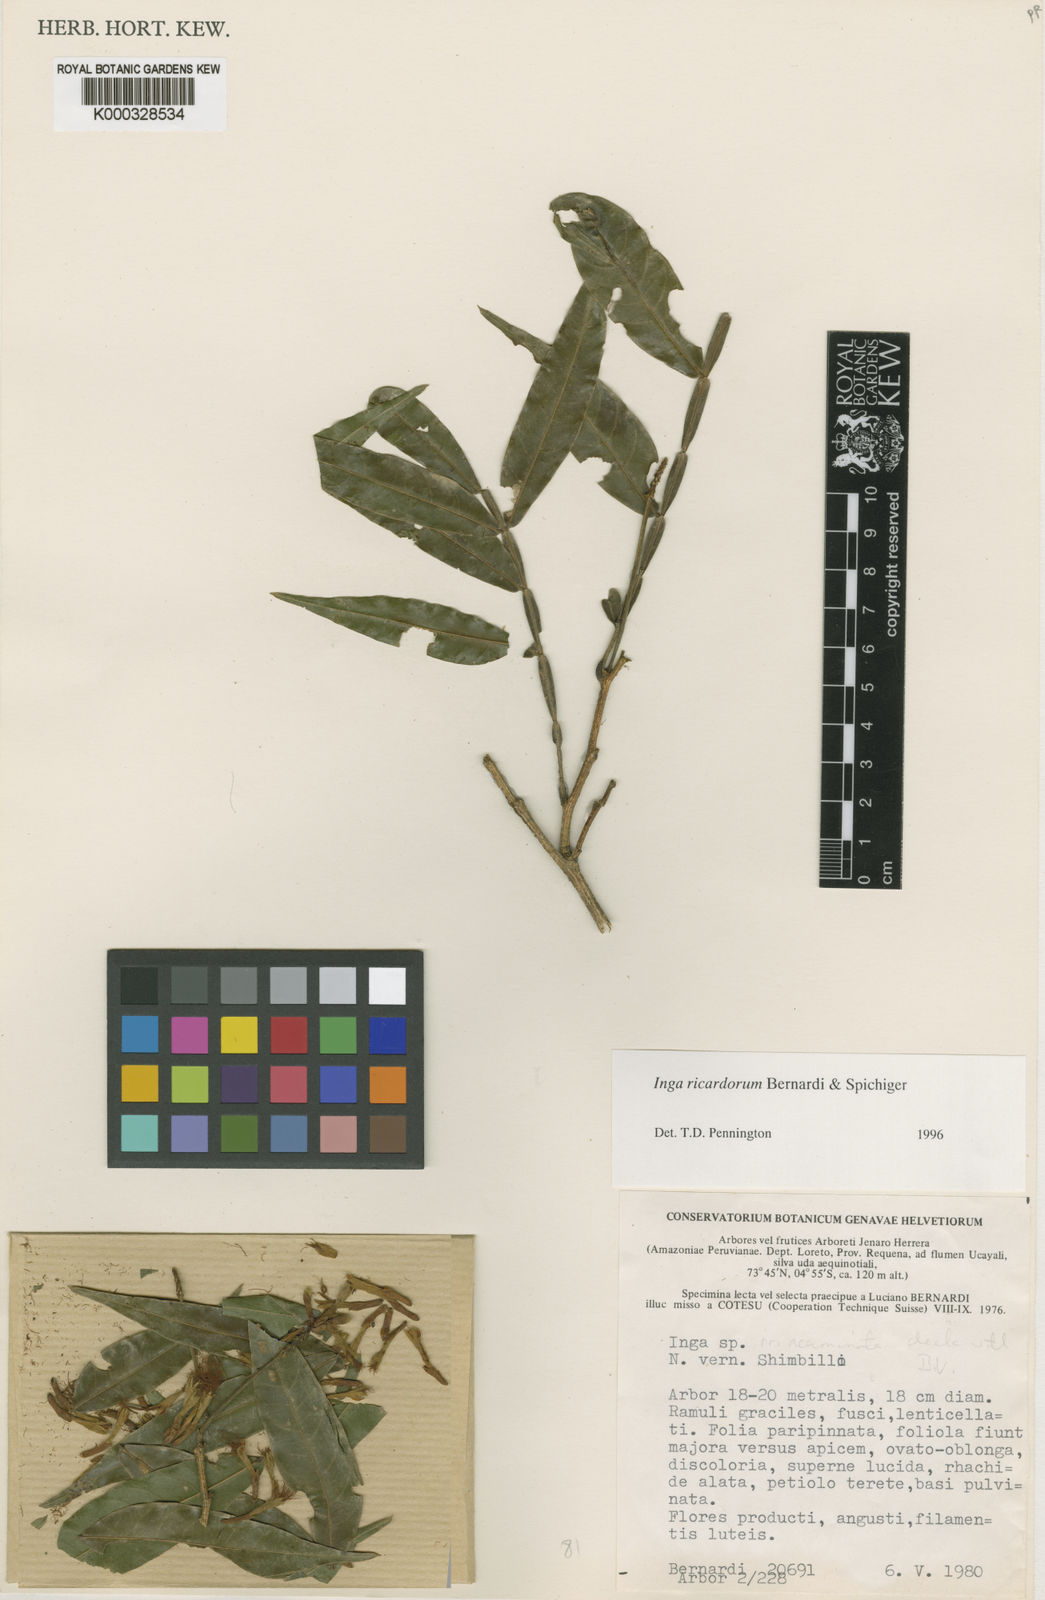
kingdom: Plantae
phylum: Tracheophyta
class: Magnoliopsida
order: Fabales
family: Fabaceae
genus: Inga
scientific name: Inga chrysantha
